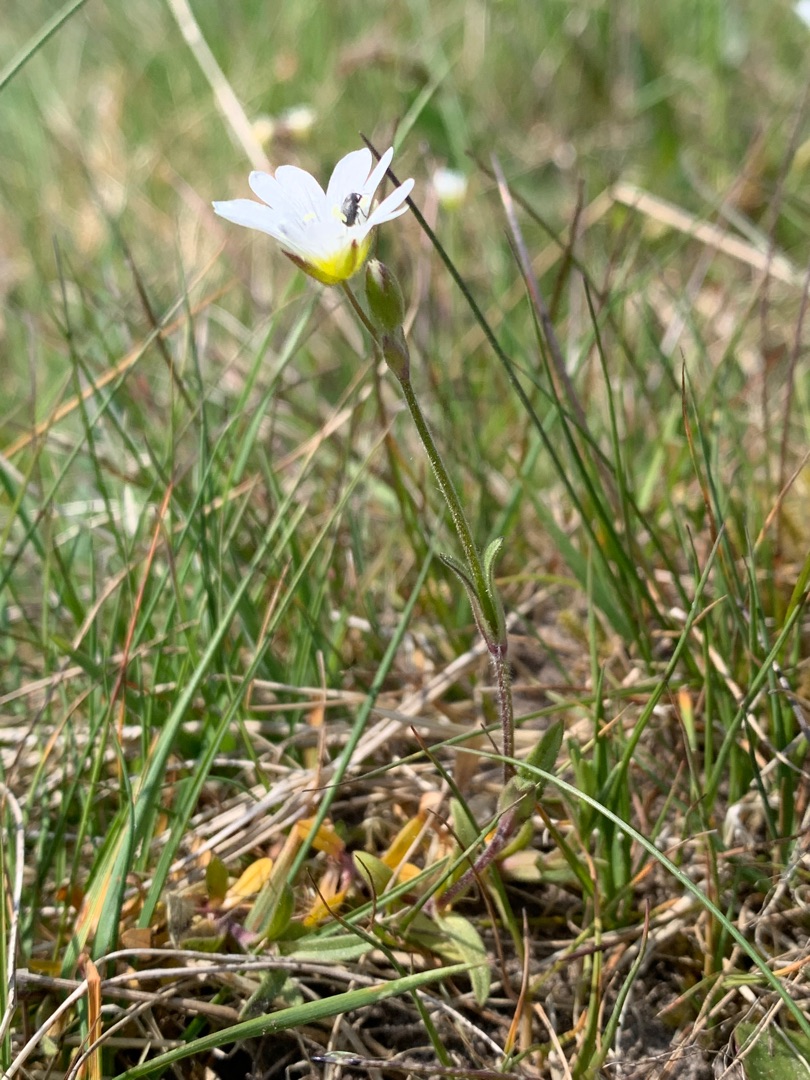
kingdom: Plantae
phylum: Tracheophyta
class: Magnoliopsida
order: Caryophyllales
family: Caryophyllaceae
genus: Cerastium
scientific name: Cerastium arvense
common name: Storblomstret hønsetarm
